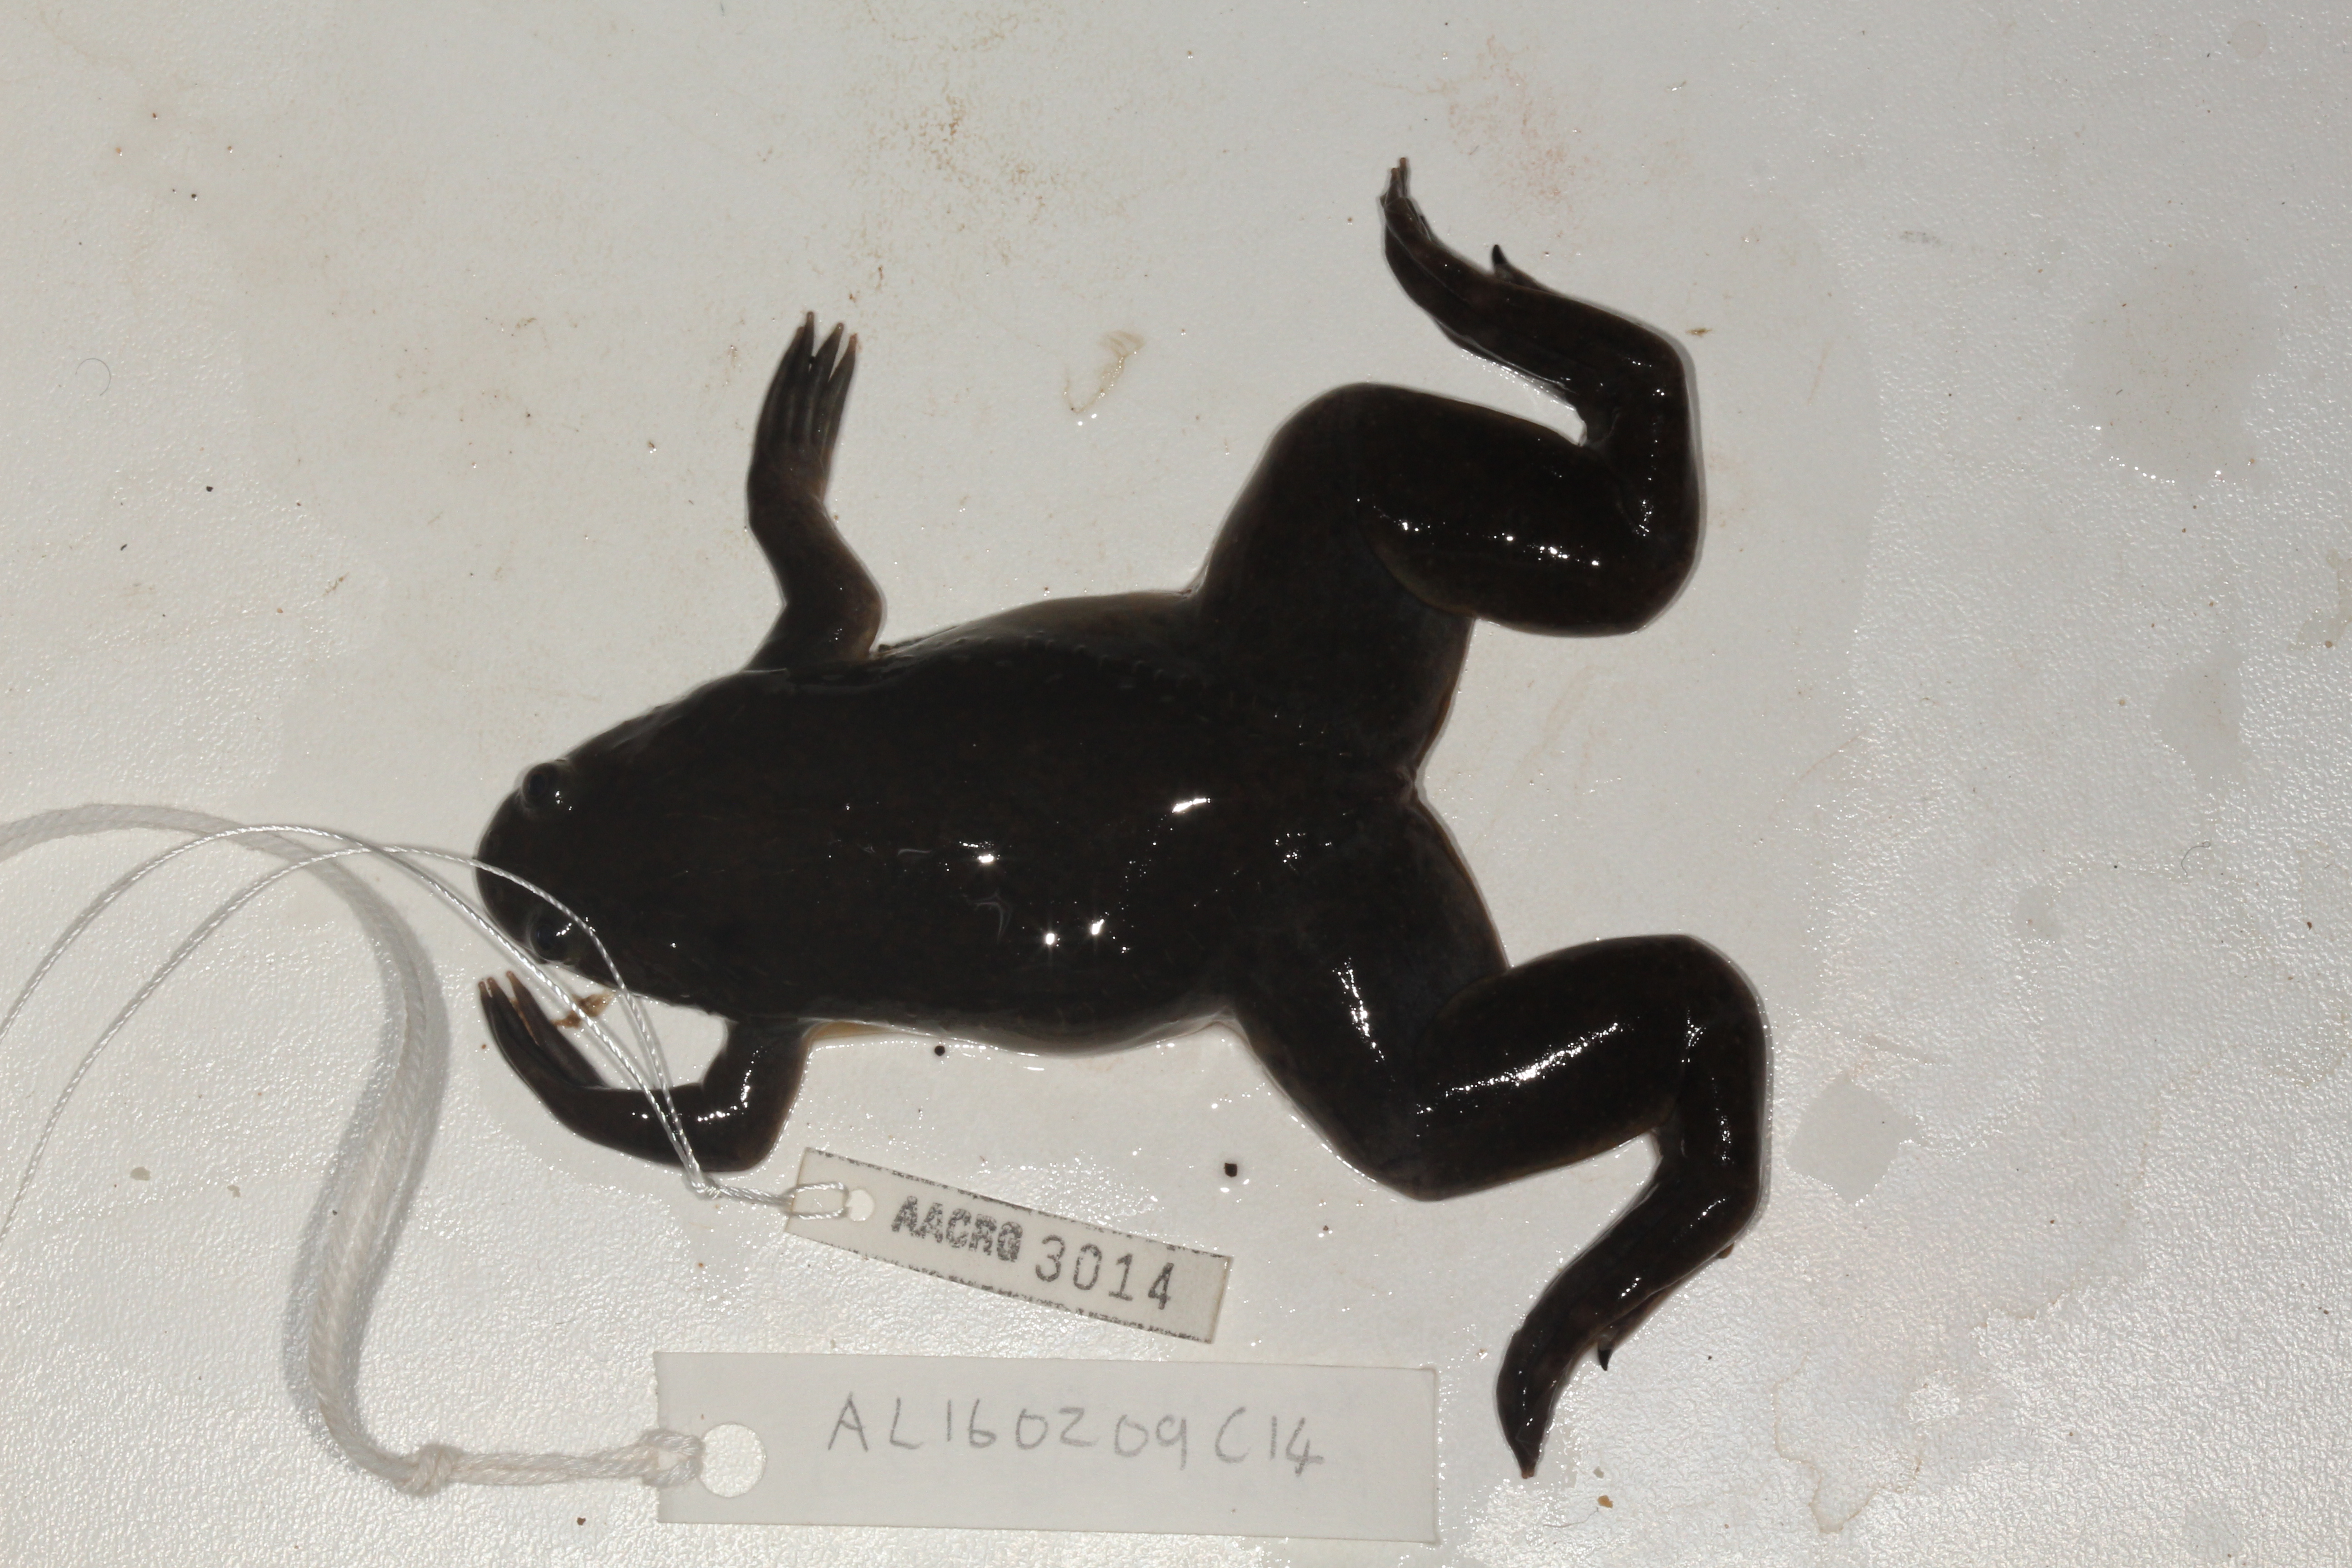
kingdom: Animalia
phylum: Chordata
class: Amphibia
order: Anura
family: Pipidae
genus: Xenopus
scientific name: Xenopus laevis
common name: African clawed frog
